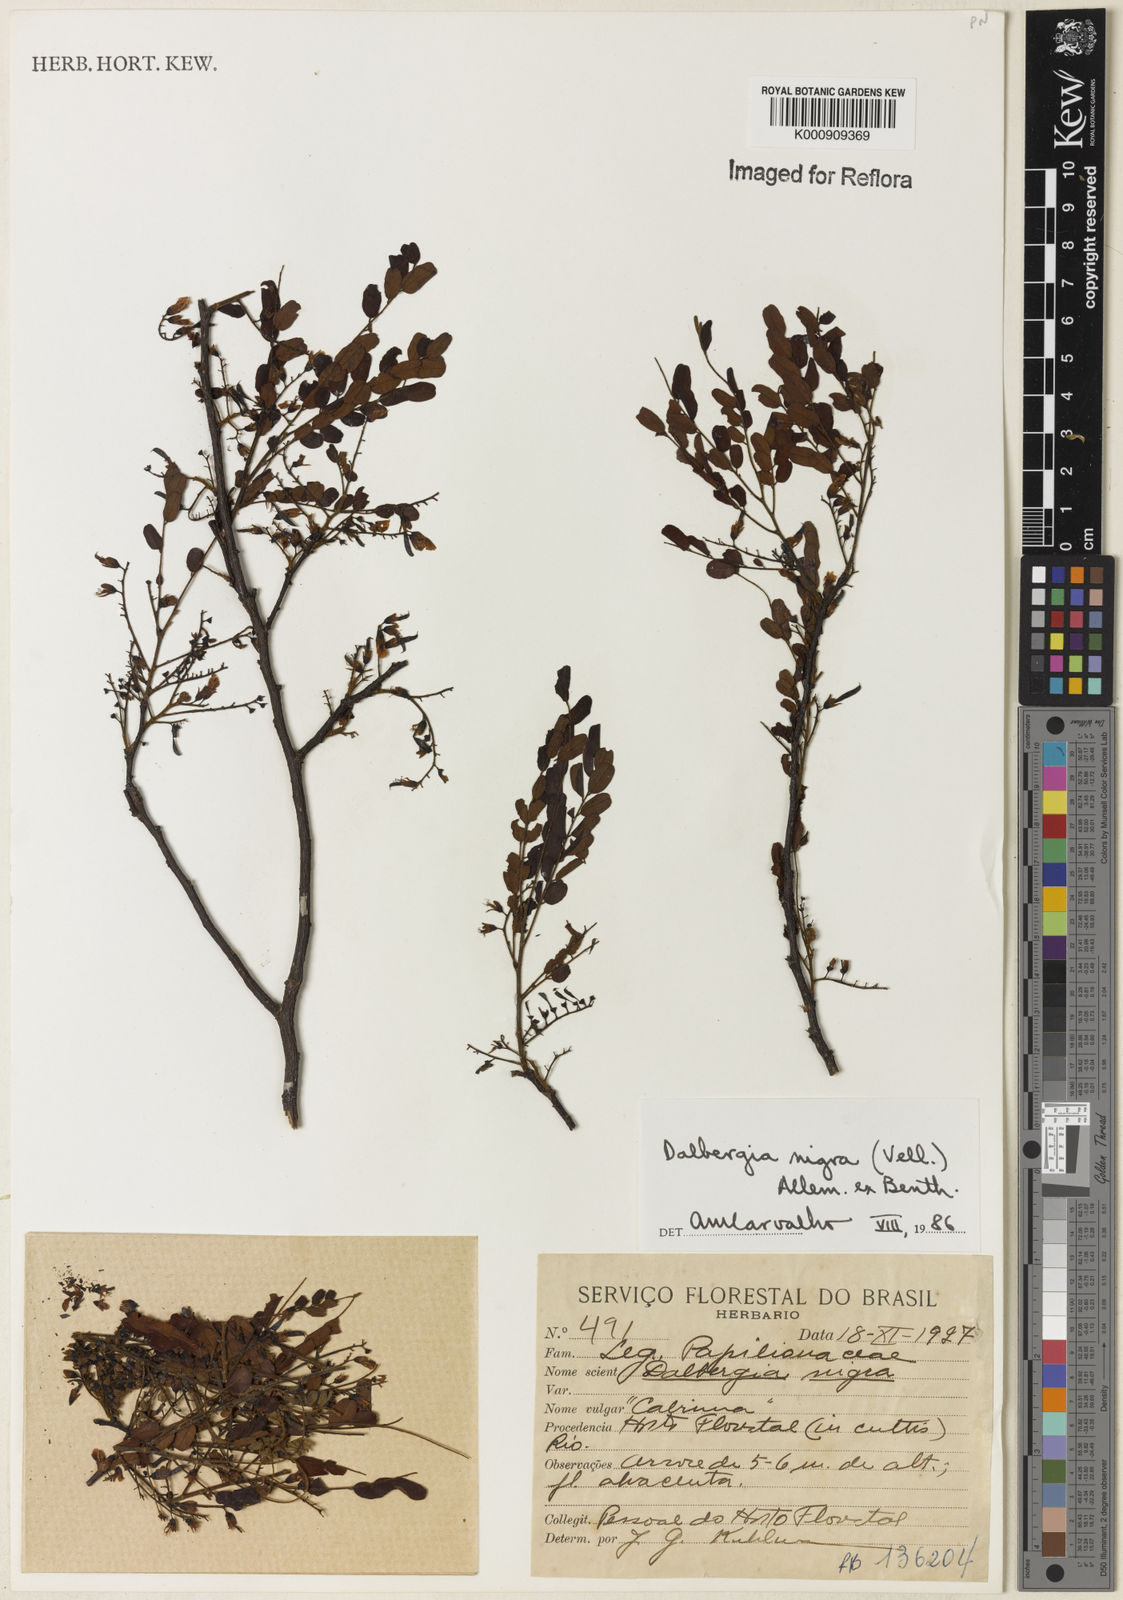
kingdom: Plantae
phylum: Tracheophyta
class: Magnoliopsida
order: Fabales
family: Fabaceae
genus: Dalbergia
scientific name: Dalbergia
